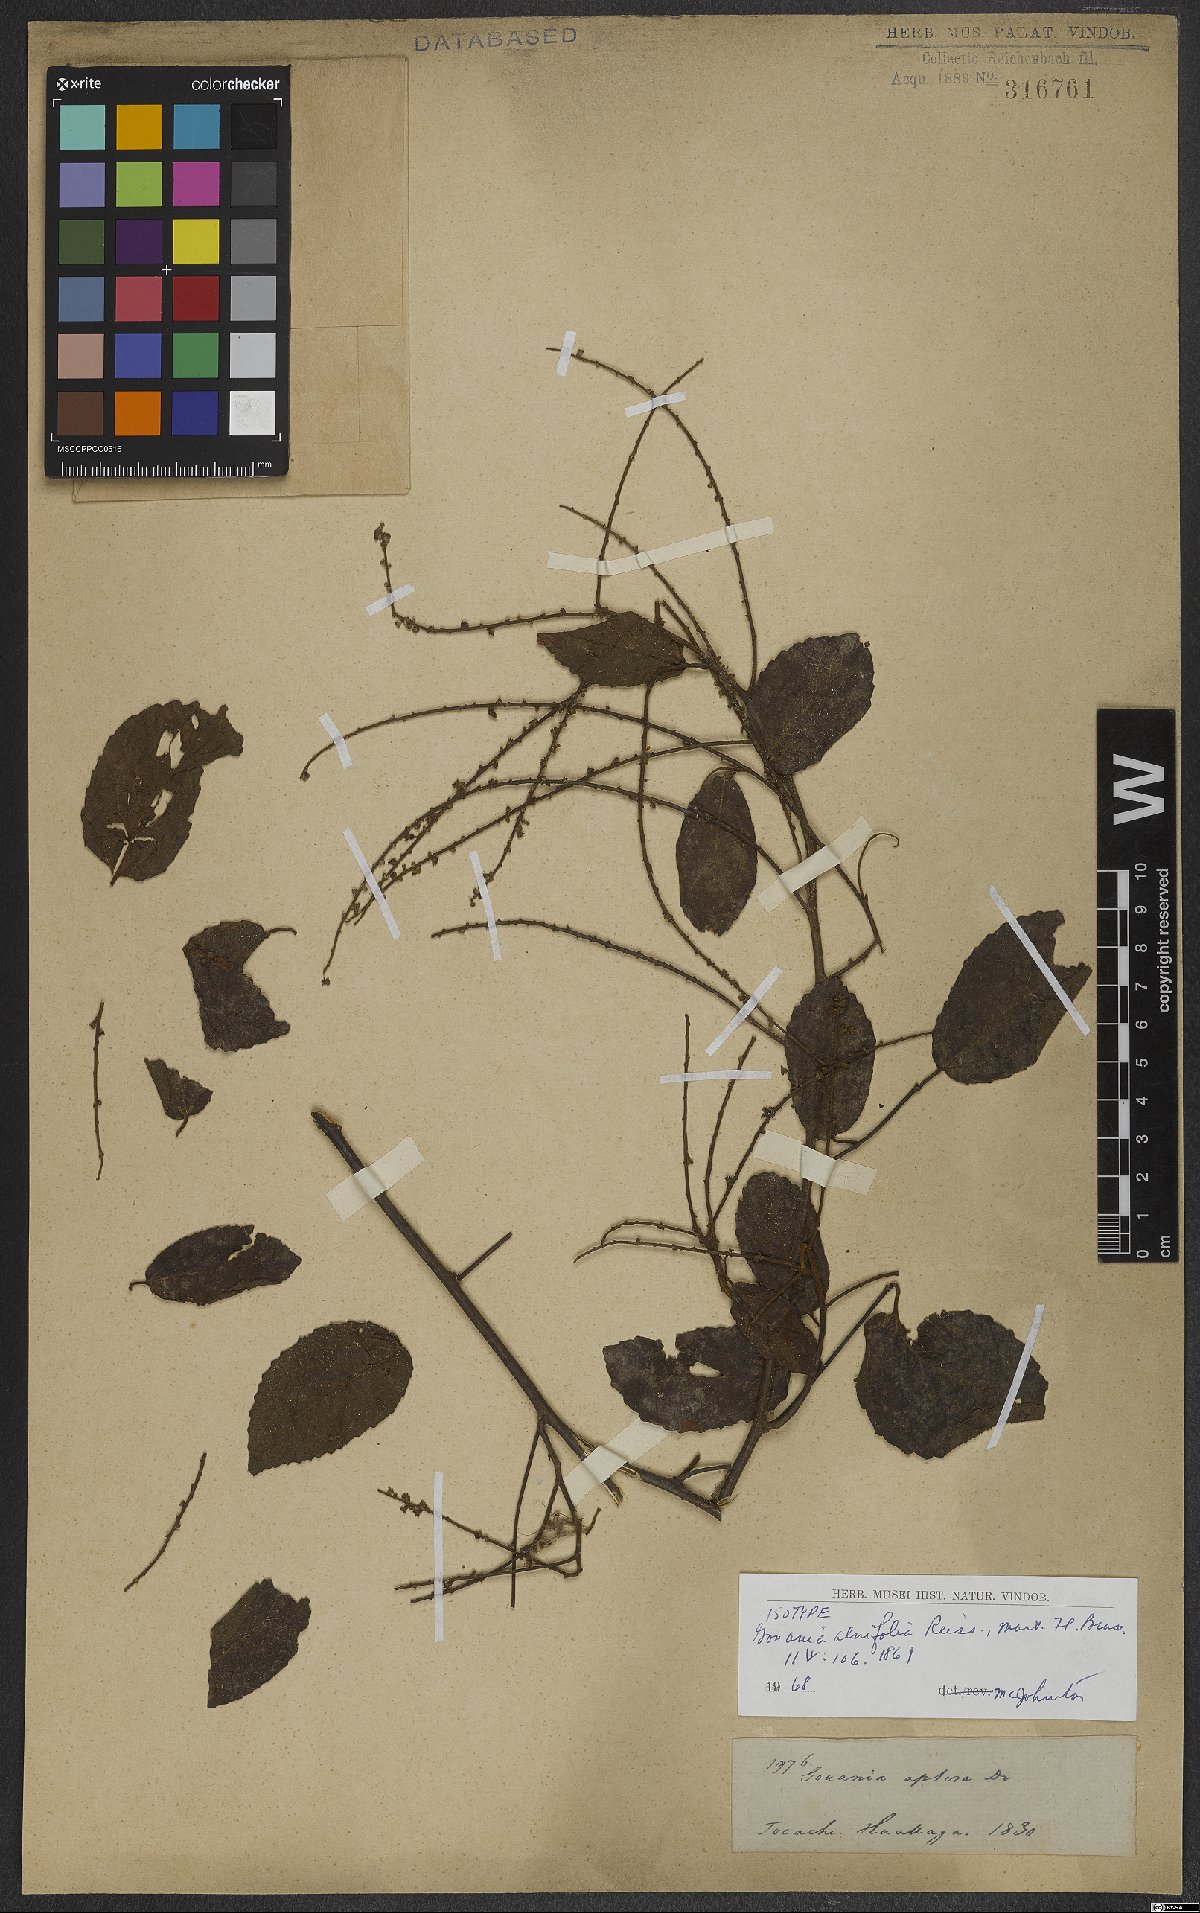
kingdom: Plantae
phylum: Tracheophyta
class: Magnoliopsida
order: Rosales
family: Rhamnaceae
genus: Gouania
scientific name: Gouania alnifolia
